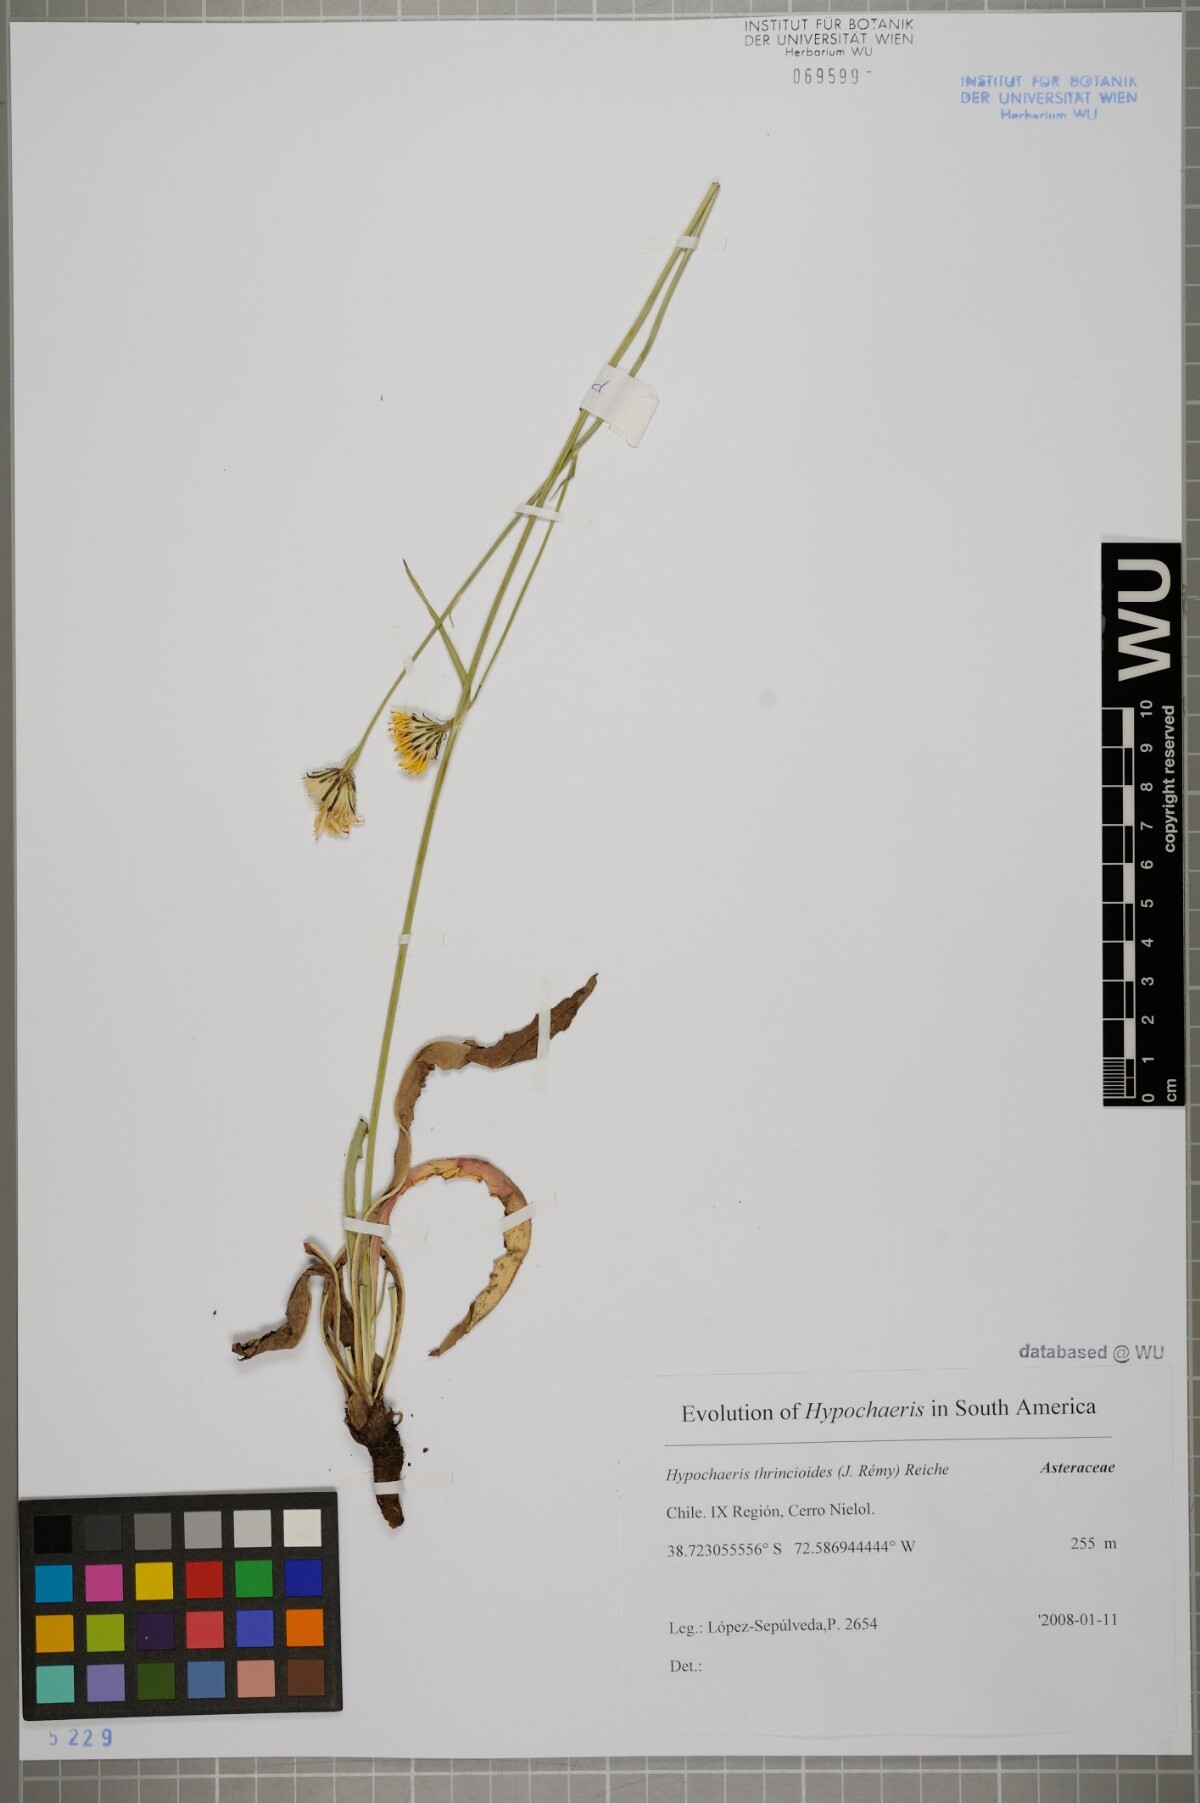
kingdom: Plantae
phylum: Tracheophyta
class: Magnoliopsida
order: Asterales
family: Asteraceae
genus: Hypochaeris
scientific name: Hypochaeris apargioides
